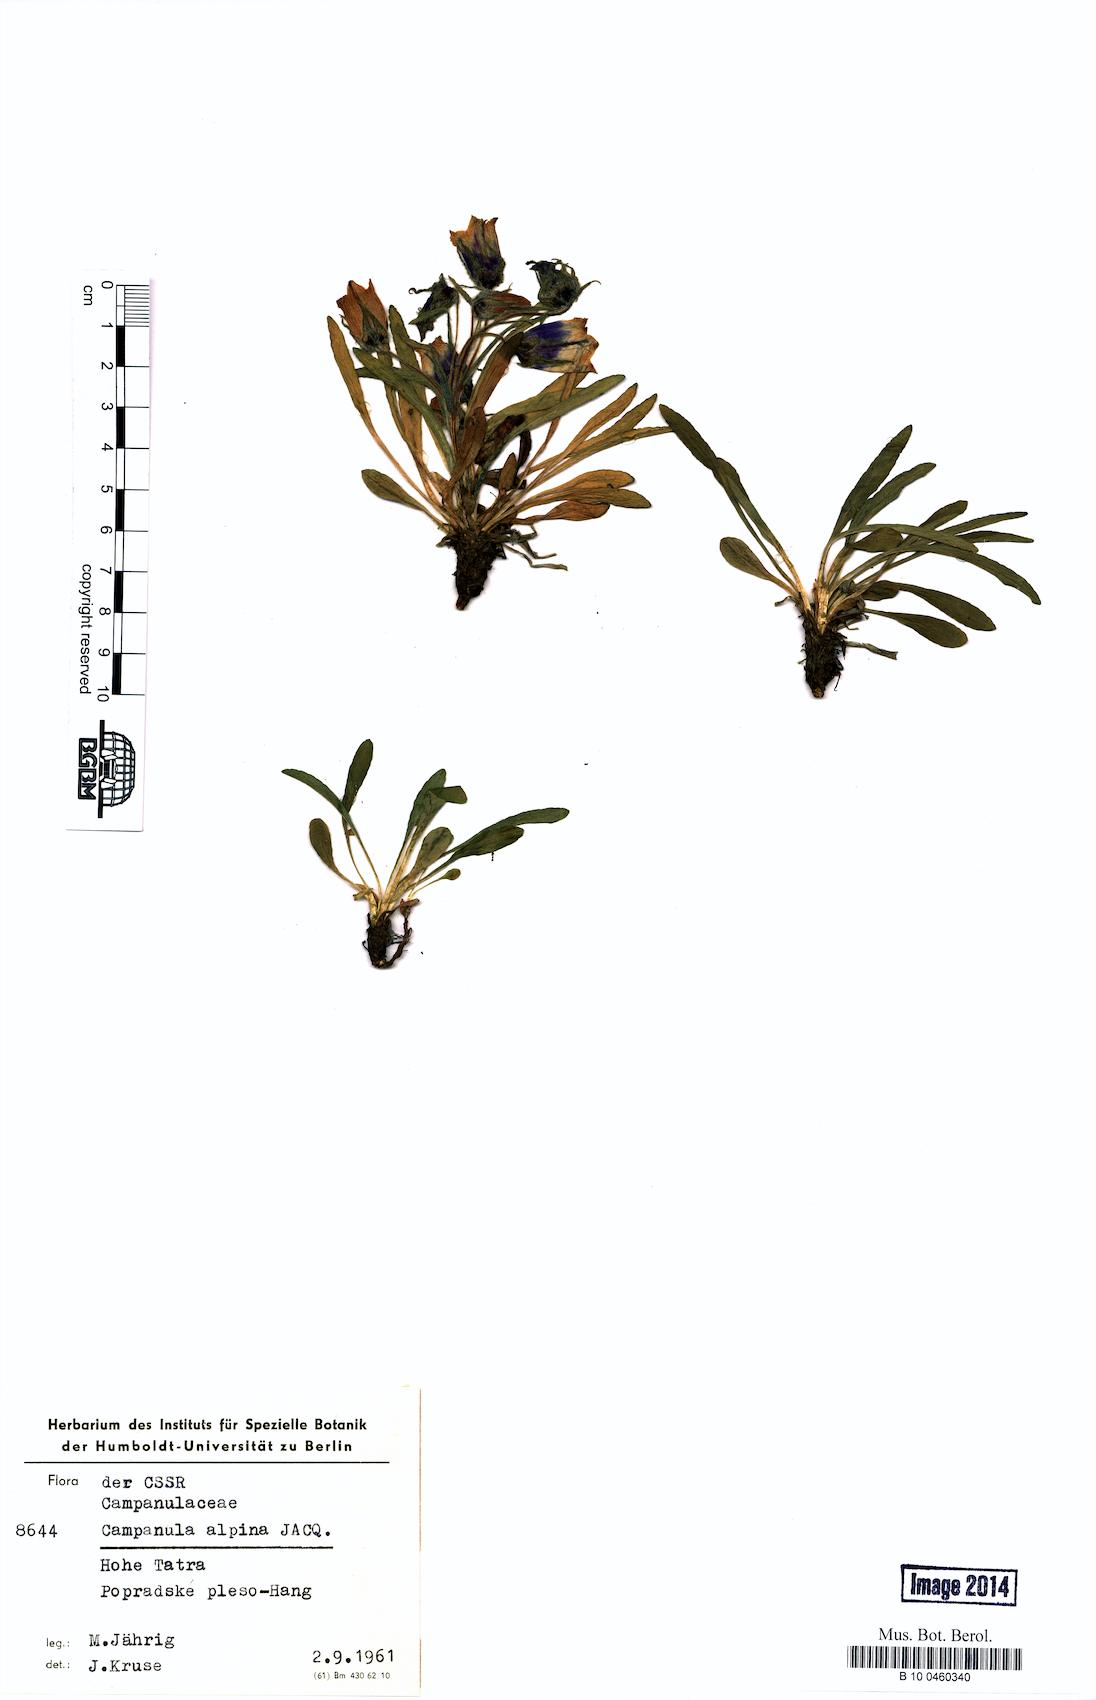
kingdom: Plantae
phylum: Tracheophyta
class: Magnoliopsida
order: Asterales
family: Campanulaceae
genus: Campanula
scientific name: Campanula alpina
